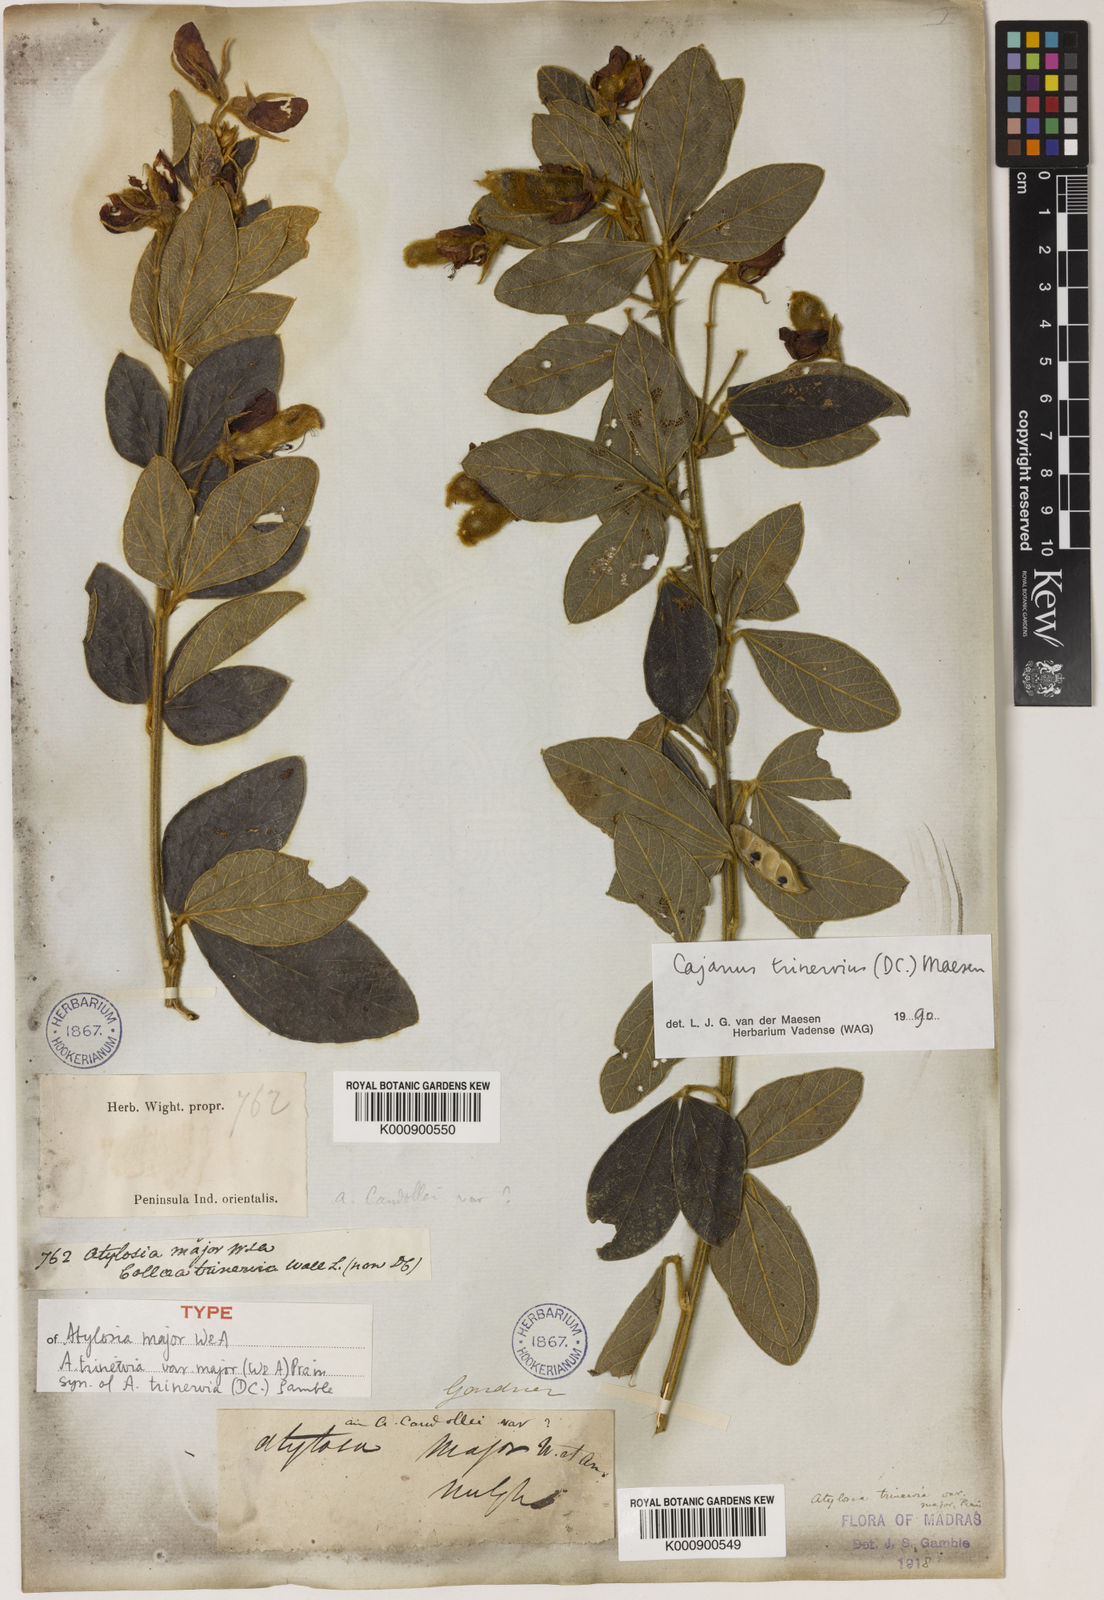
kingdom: Plantae
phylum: Tracheophyta
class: Magnoliopsida
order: Fabales
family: Fabaceae
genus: Cajanus
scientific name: Cajanus
